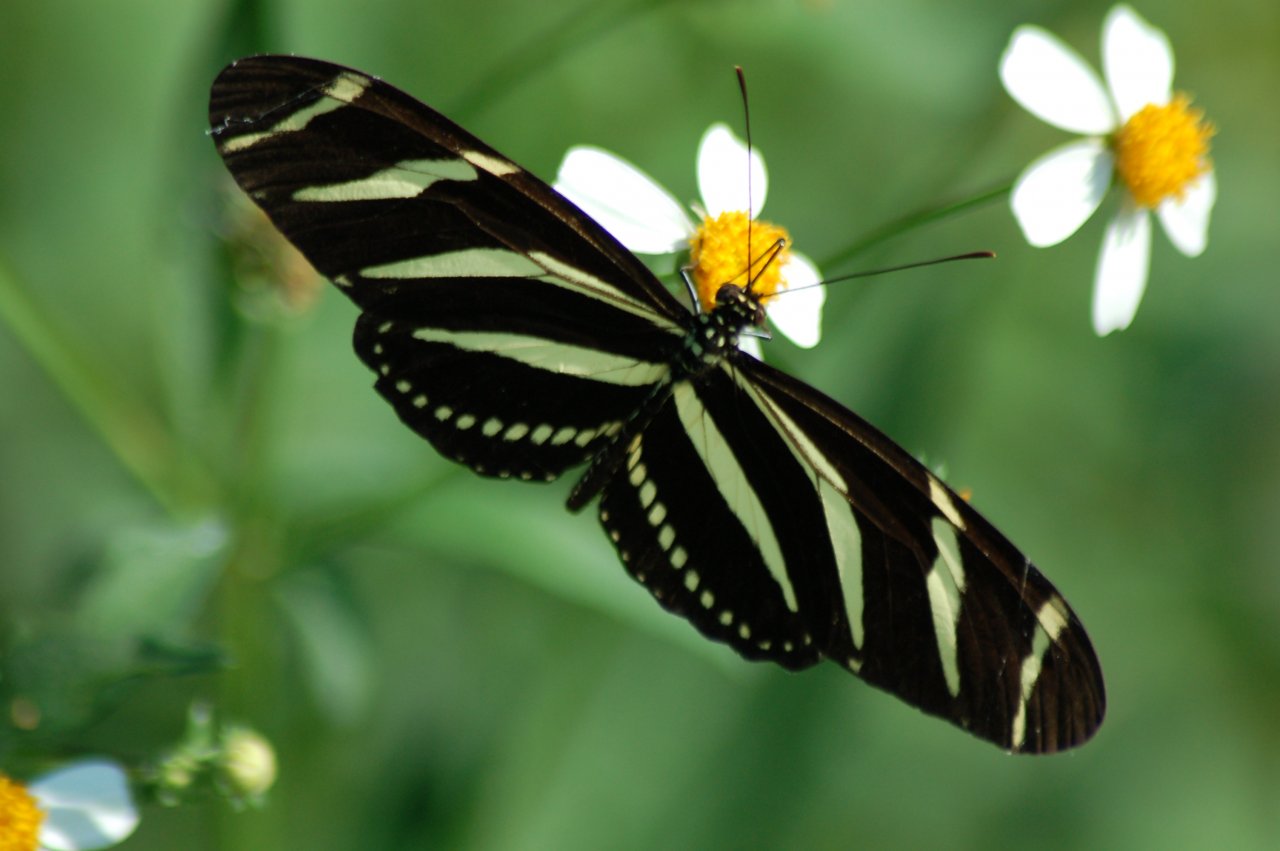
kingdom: Animalia
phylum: Arthropoda
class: Insecta
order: Lepidoptera
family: Nymphalidae
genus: Heliconius
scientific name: Heliconius charithonia
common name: Zebra Longwing
